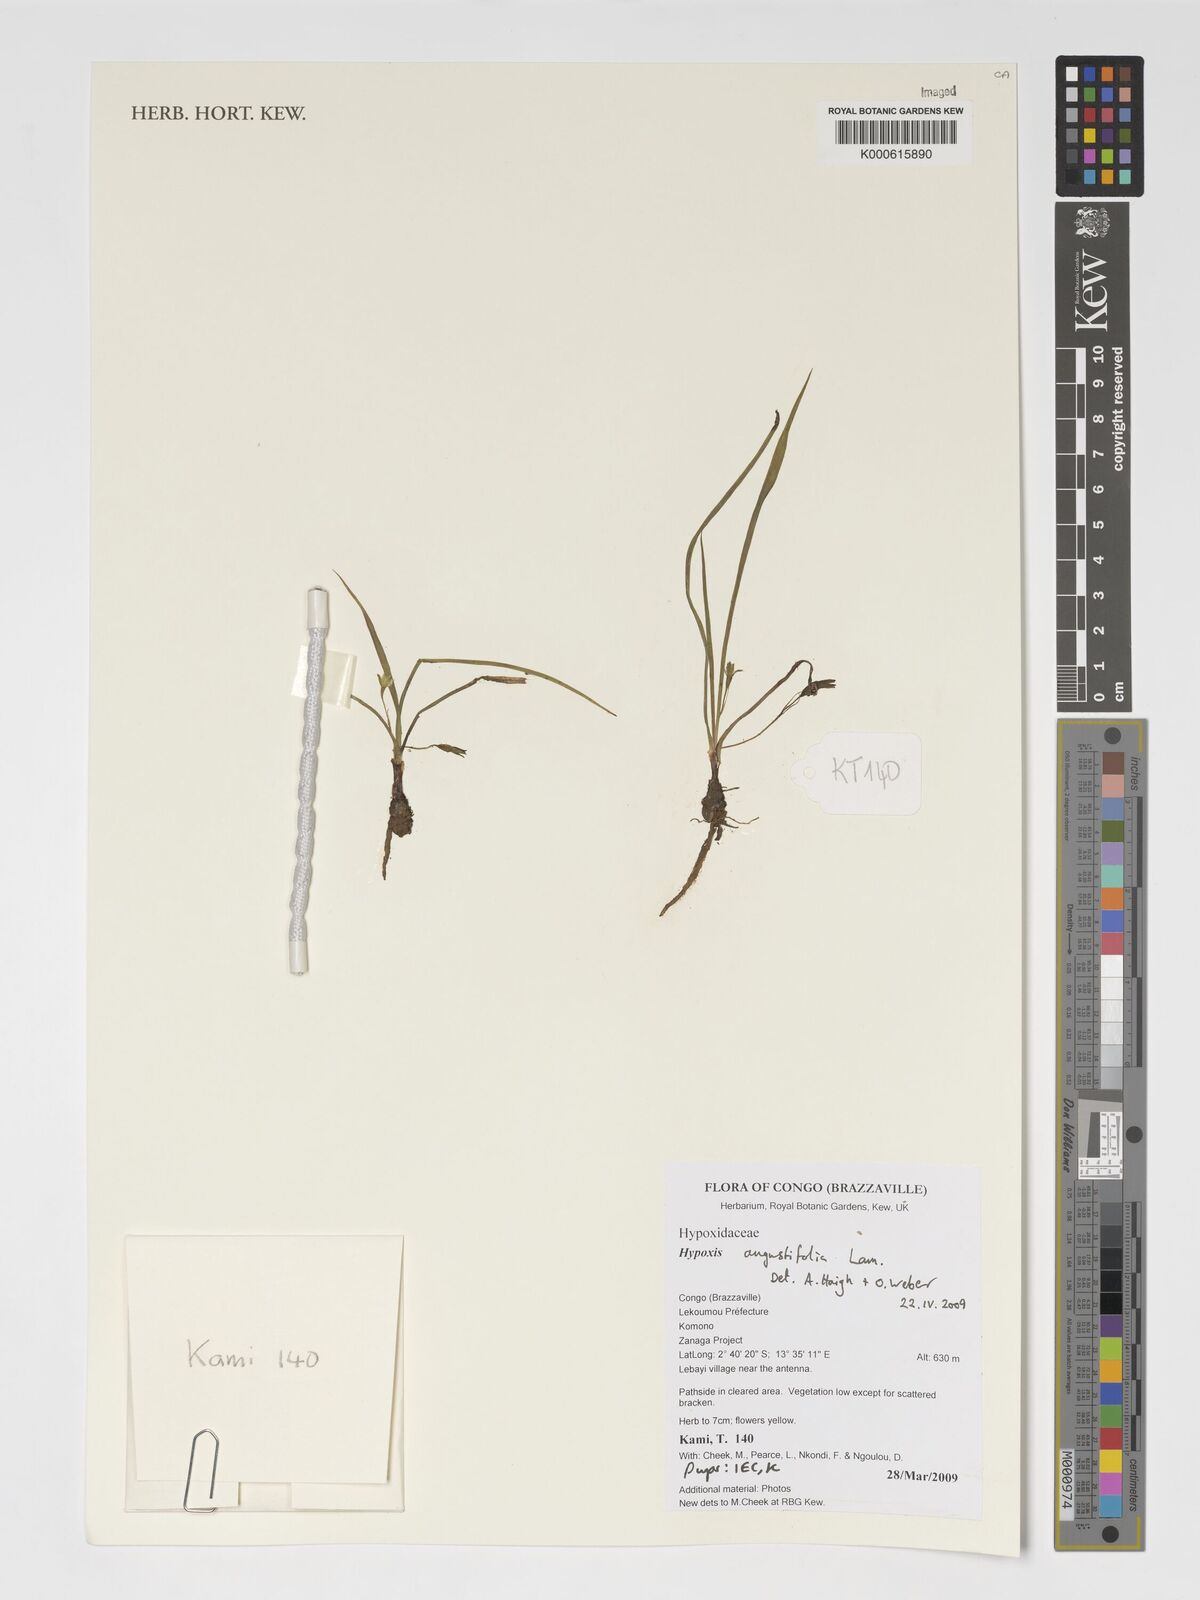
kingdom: Plantae
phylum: Tracheophyta
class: Liliopsida
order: Asparagales
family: Hypoxidaceae
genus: Hypoxis
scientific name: Hypoxis angustifolia
